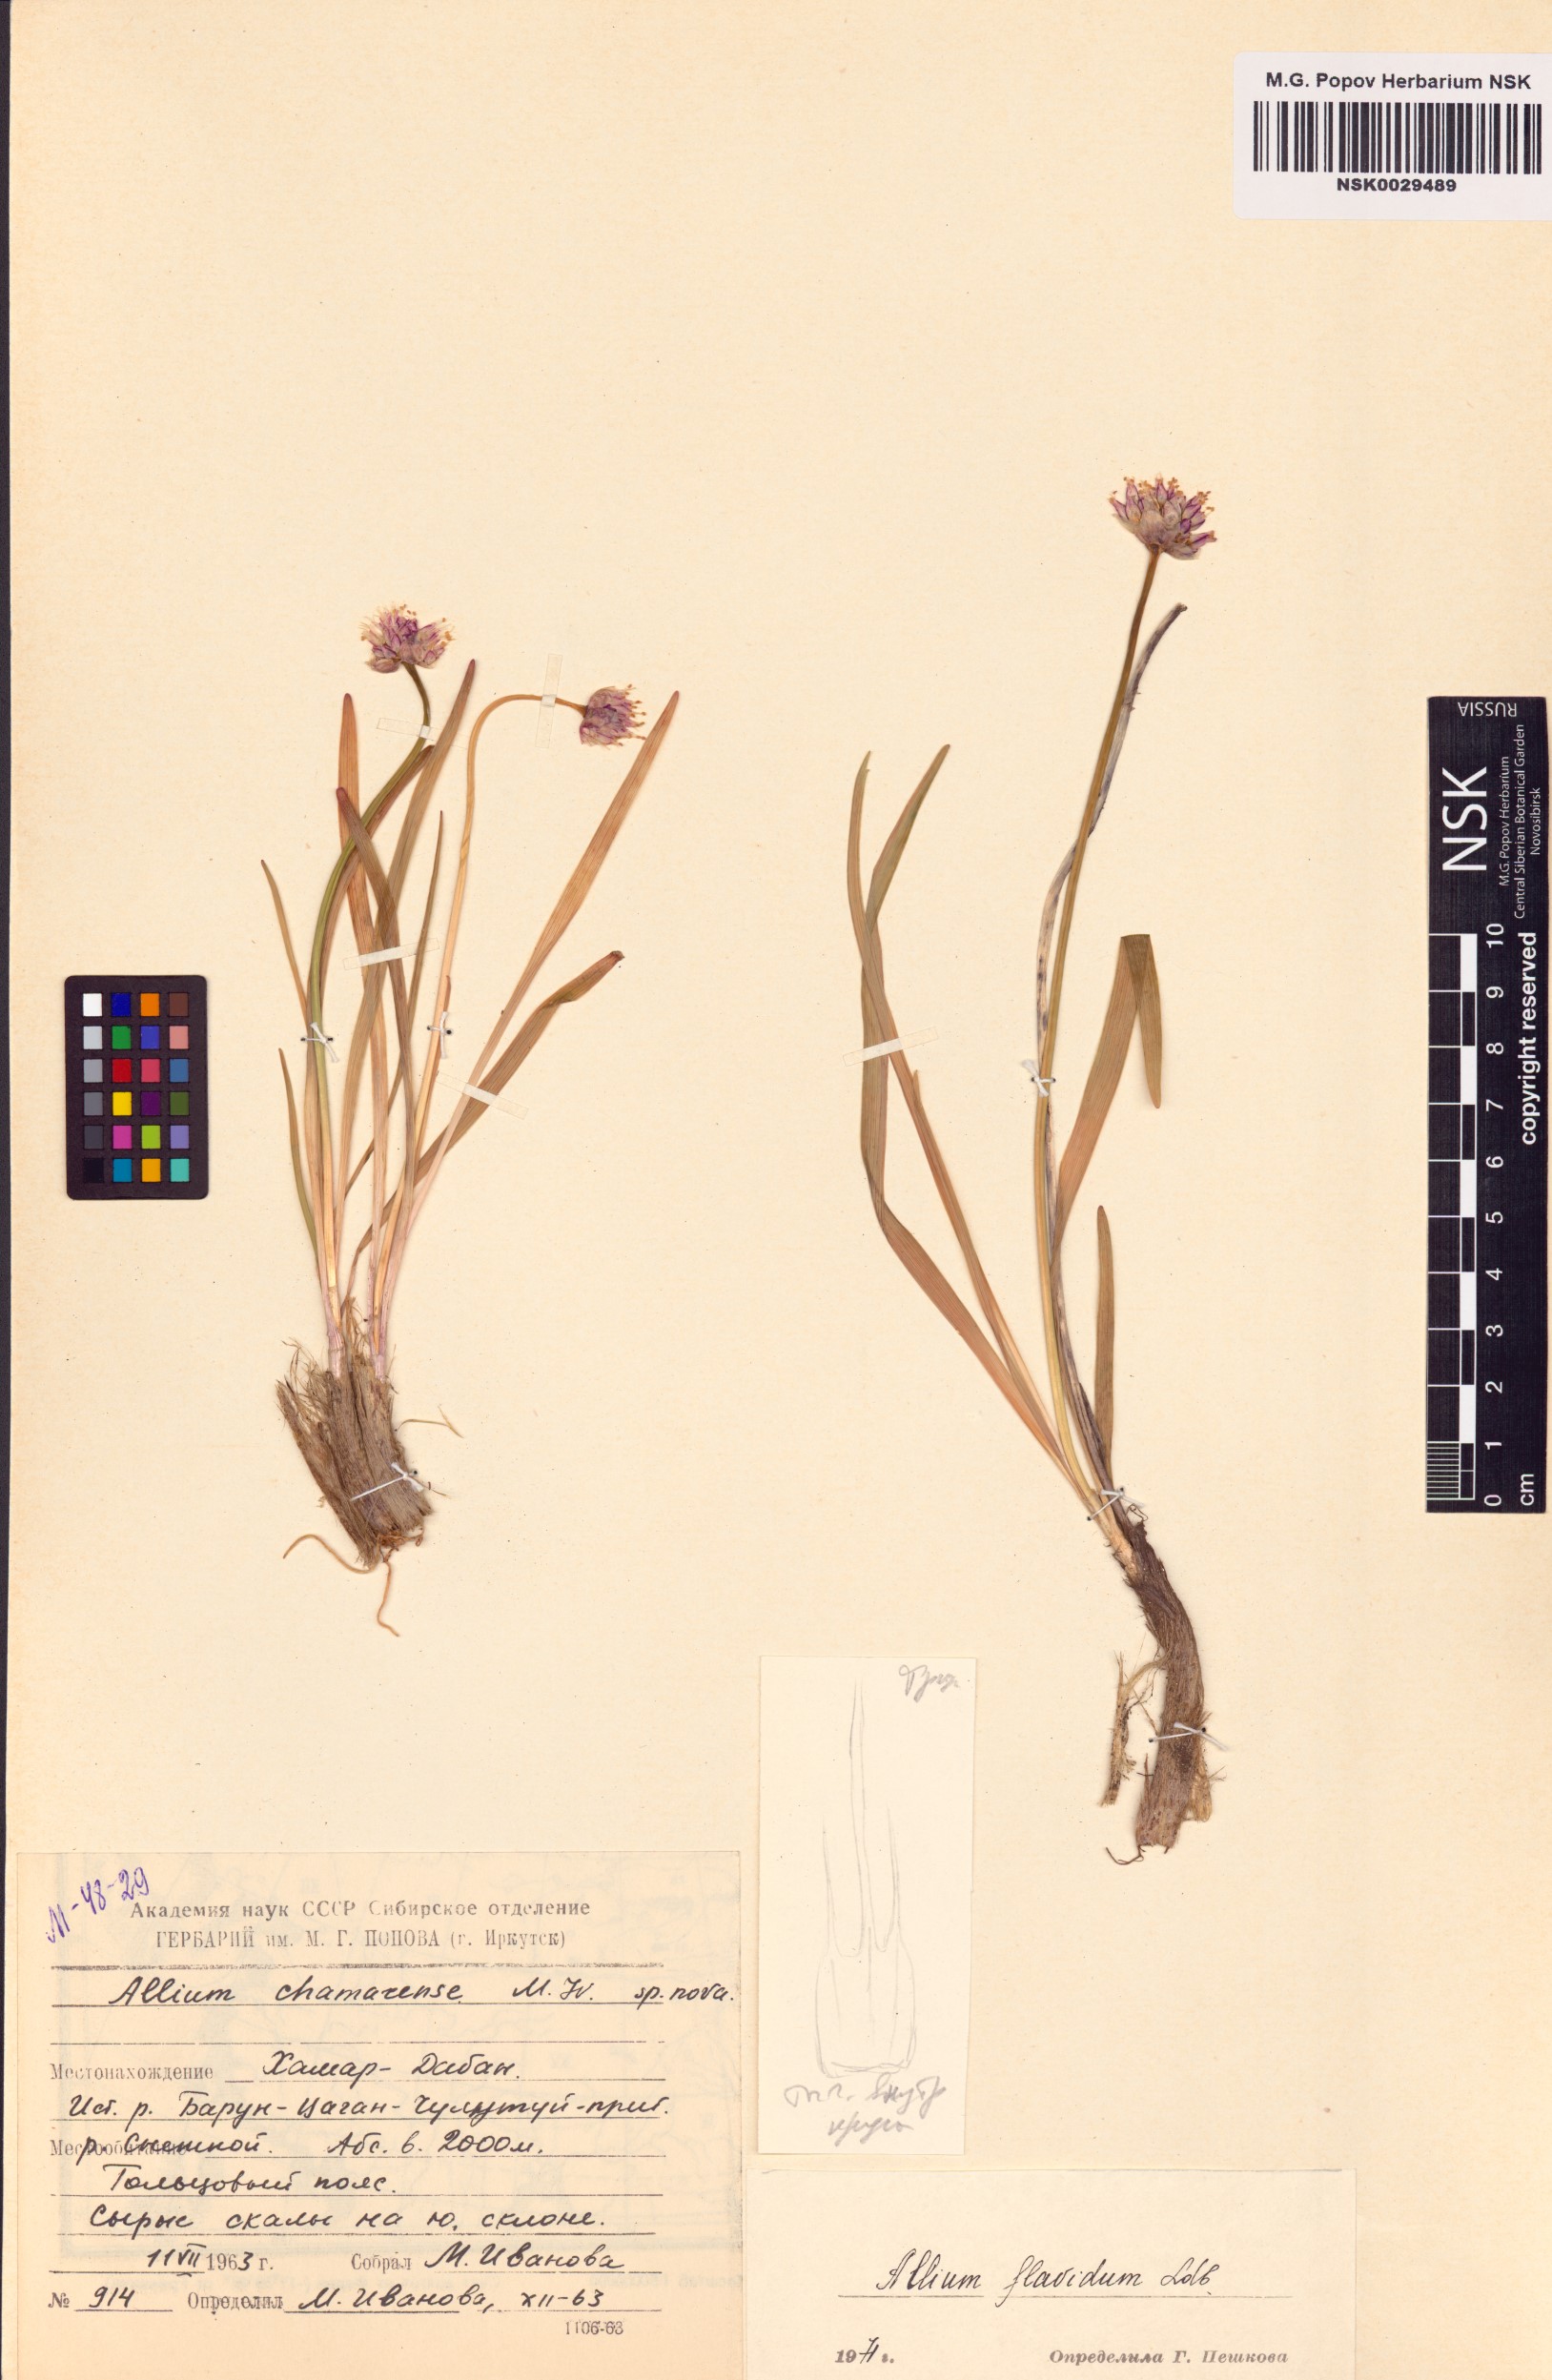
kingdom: Plantae
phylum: Tracheophyta
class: Liliopsida
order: Asparagales
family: Amaryllidaceae
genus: Allium
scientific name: Allium flavidum
